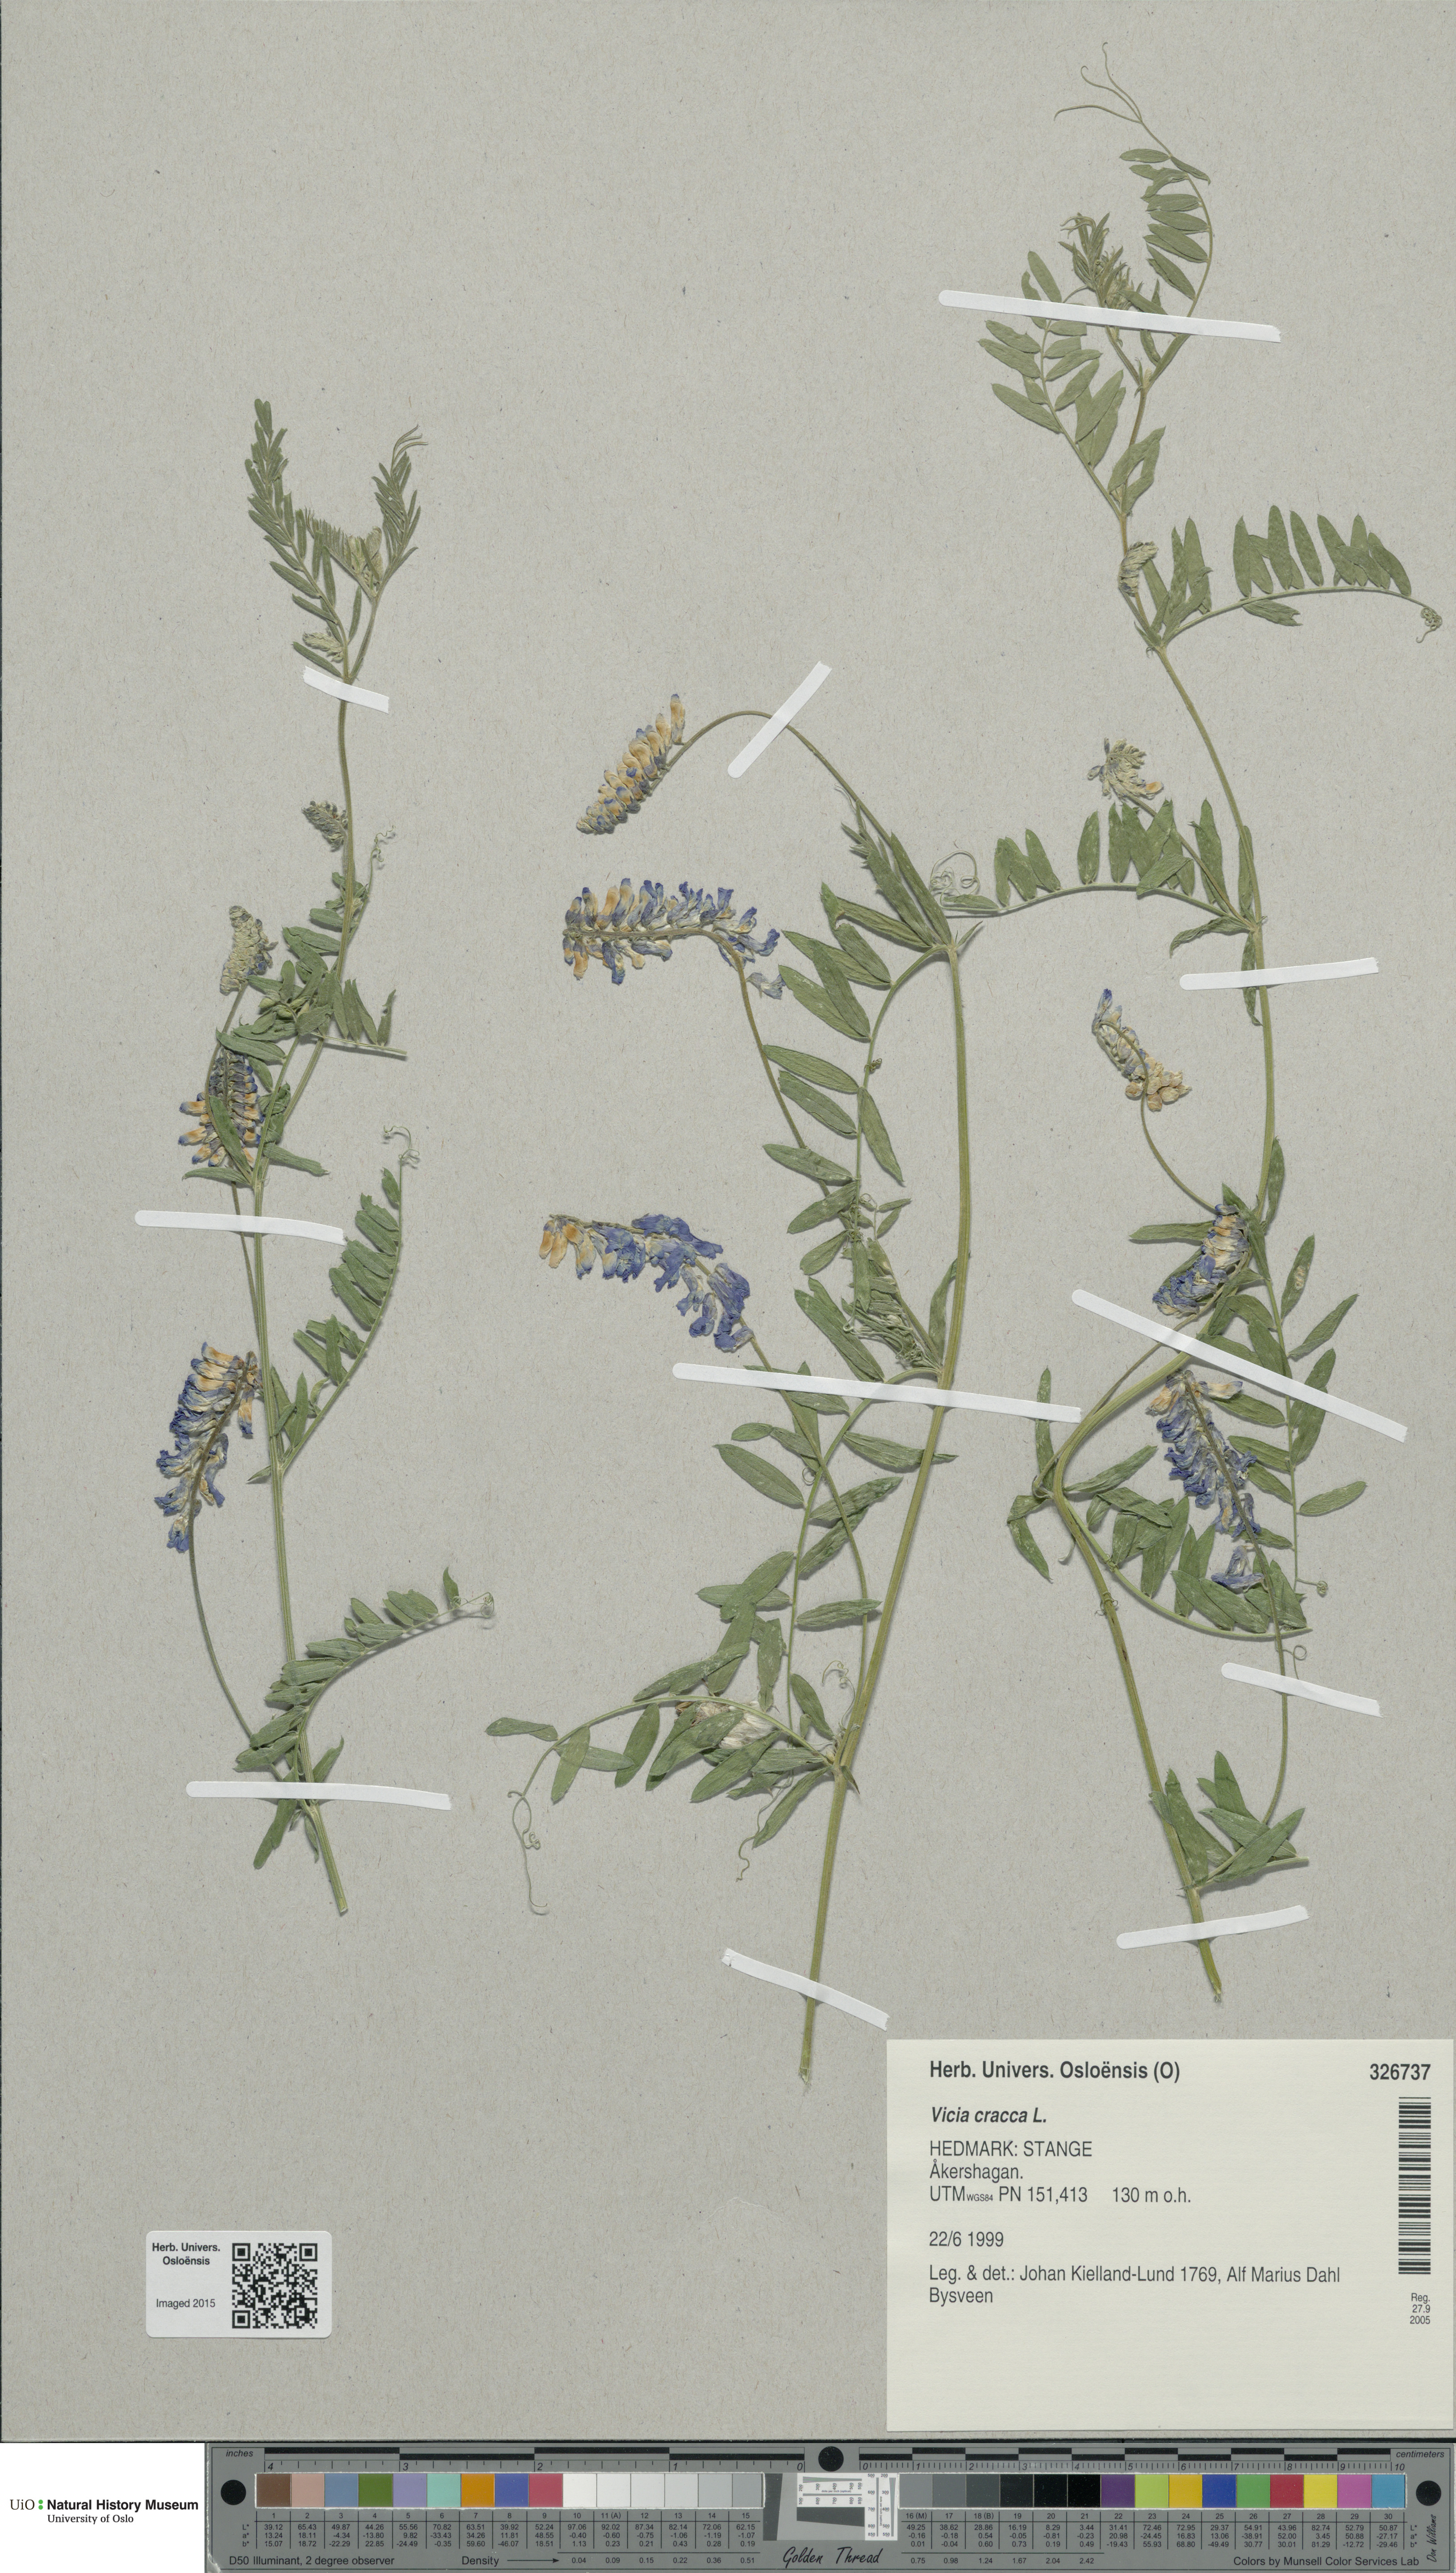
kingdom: Plantae
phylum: Tracheophyta
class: Magnoliopsida
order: Fabales
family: Fabaceae
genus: Vicia
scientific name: Vicia cracca
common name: Bird vetch
